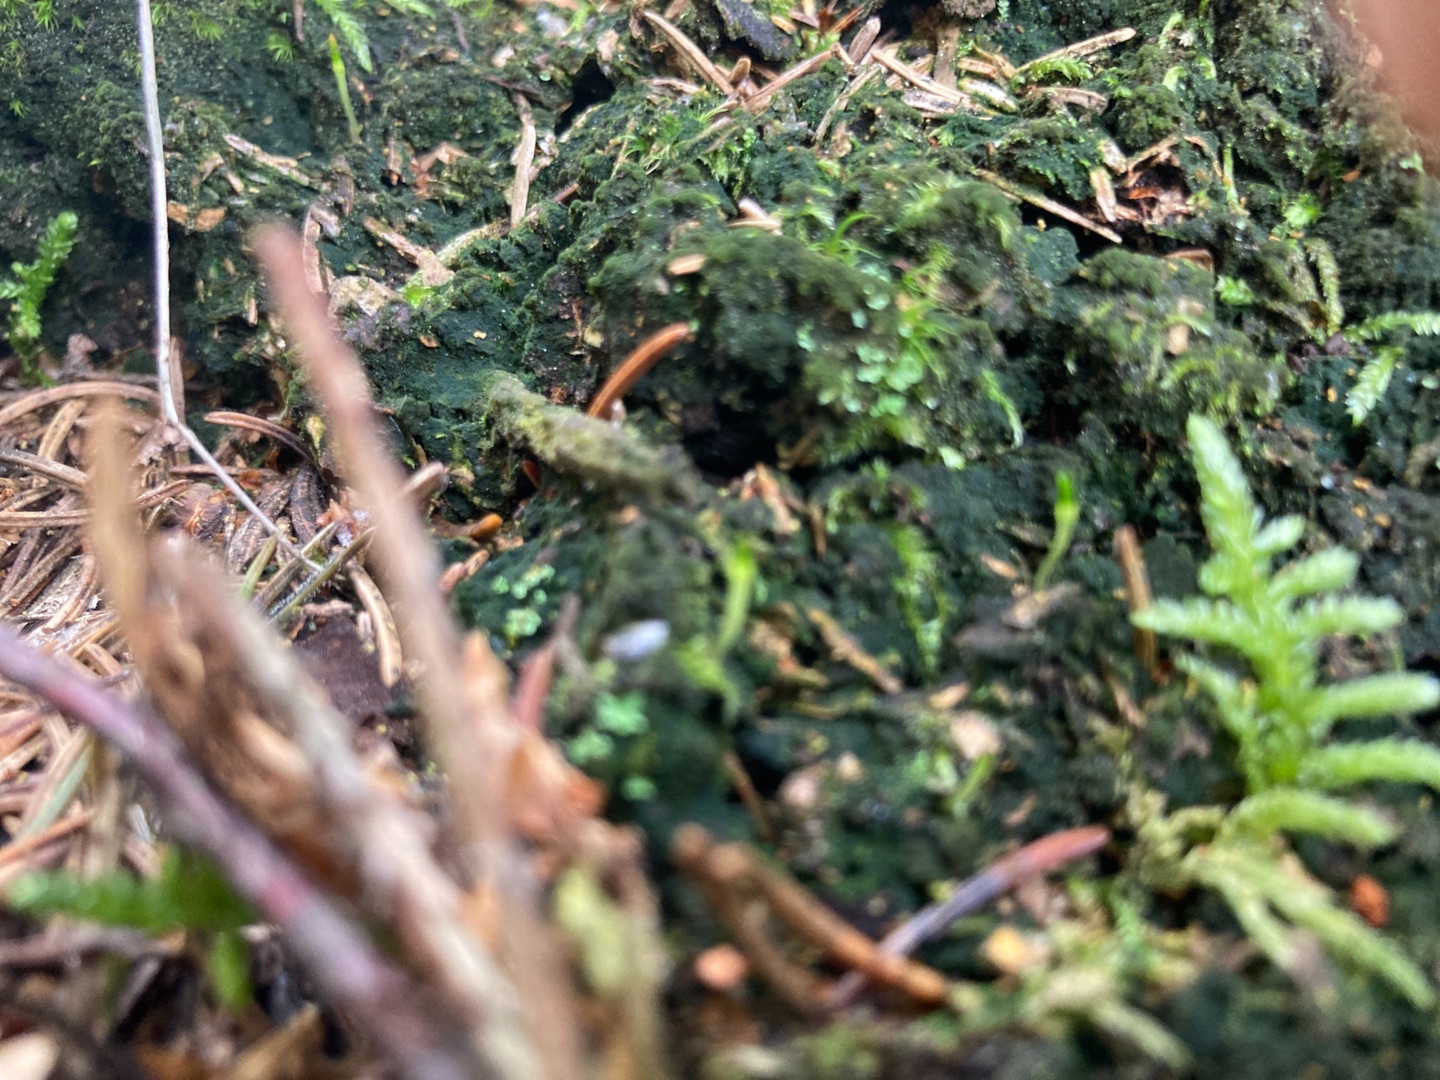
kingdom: Plantae
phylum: Bryophyta
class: Bryopsida
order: Buxbaumiales
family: Buxbaumiaceae
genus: Buxbaumia
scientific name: Buxbaumia viridis
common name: Grøn buxbaumia
